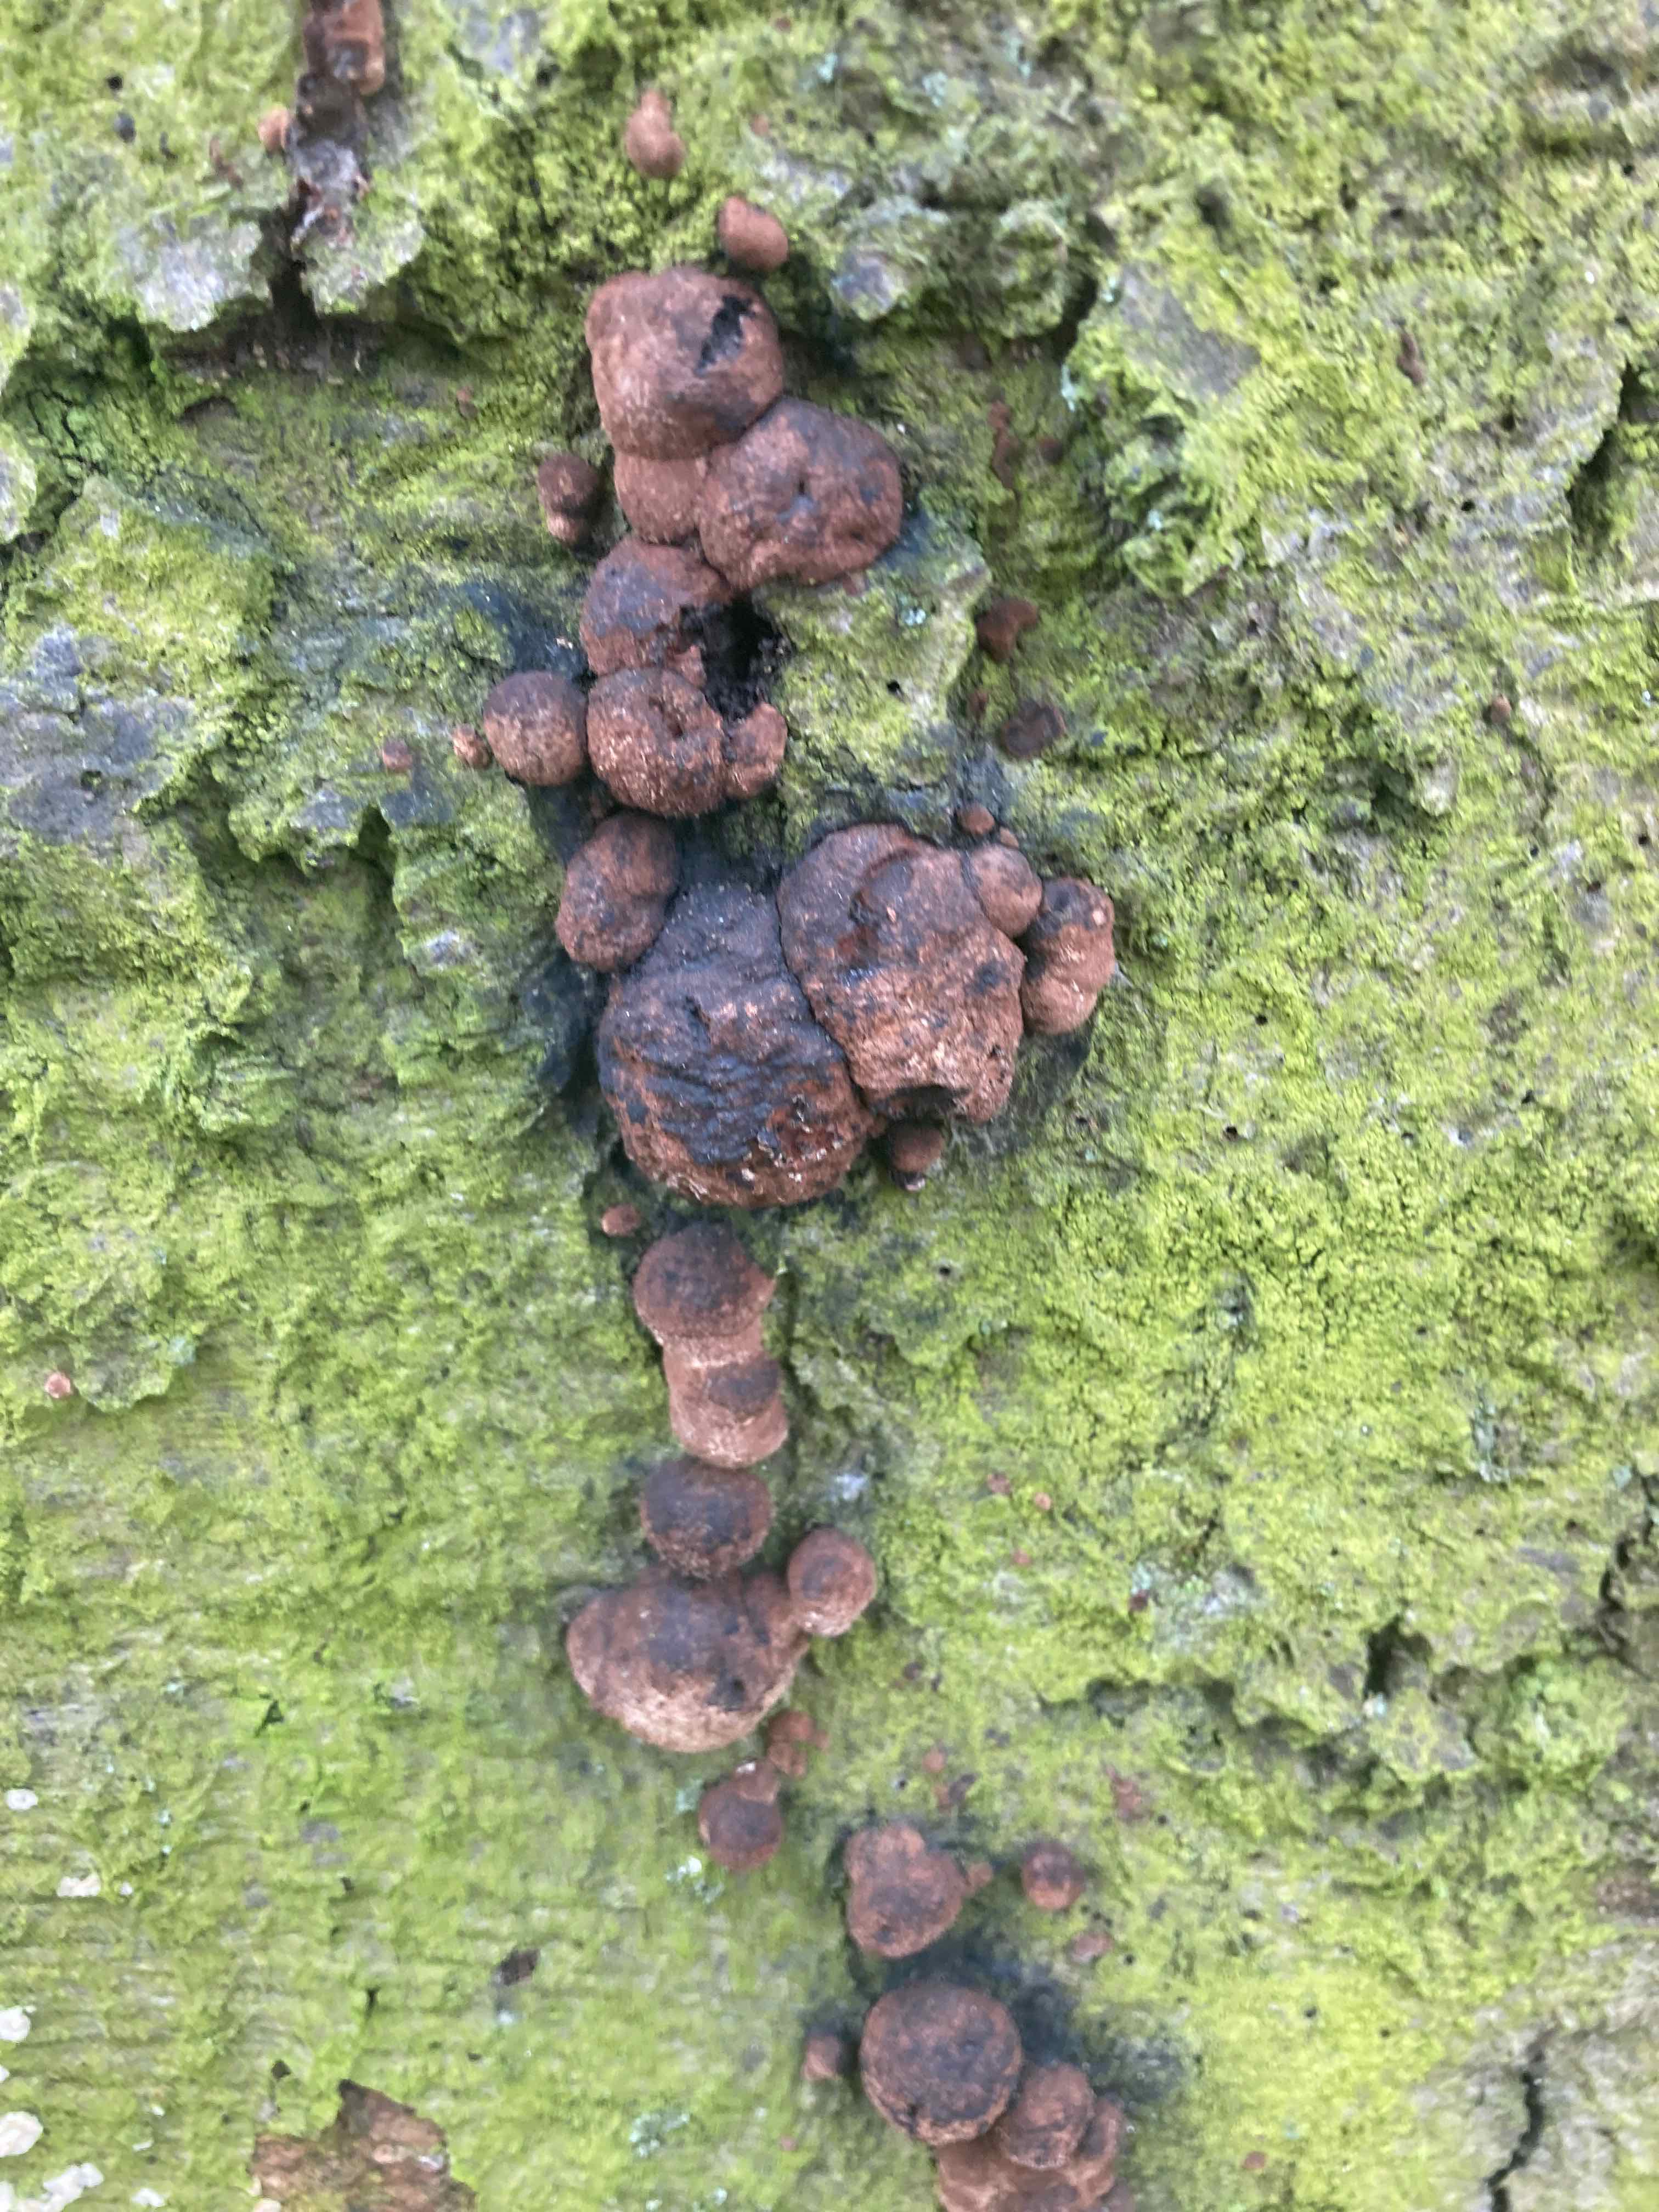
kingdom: Fungi
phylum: Ascomycota
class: Sordariomycetes
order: Xylariales
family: Hypoxylaceae
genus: Hypoxylon
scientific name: Hypoxylon fragiforme
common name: kuljordbær
